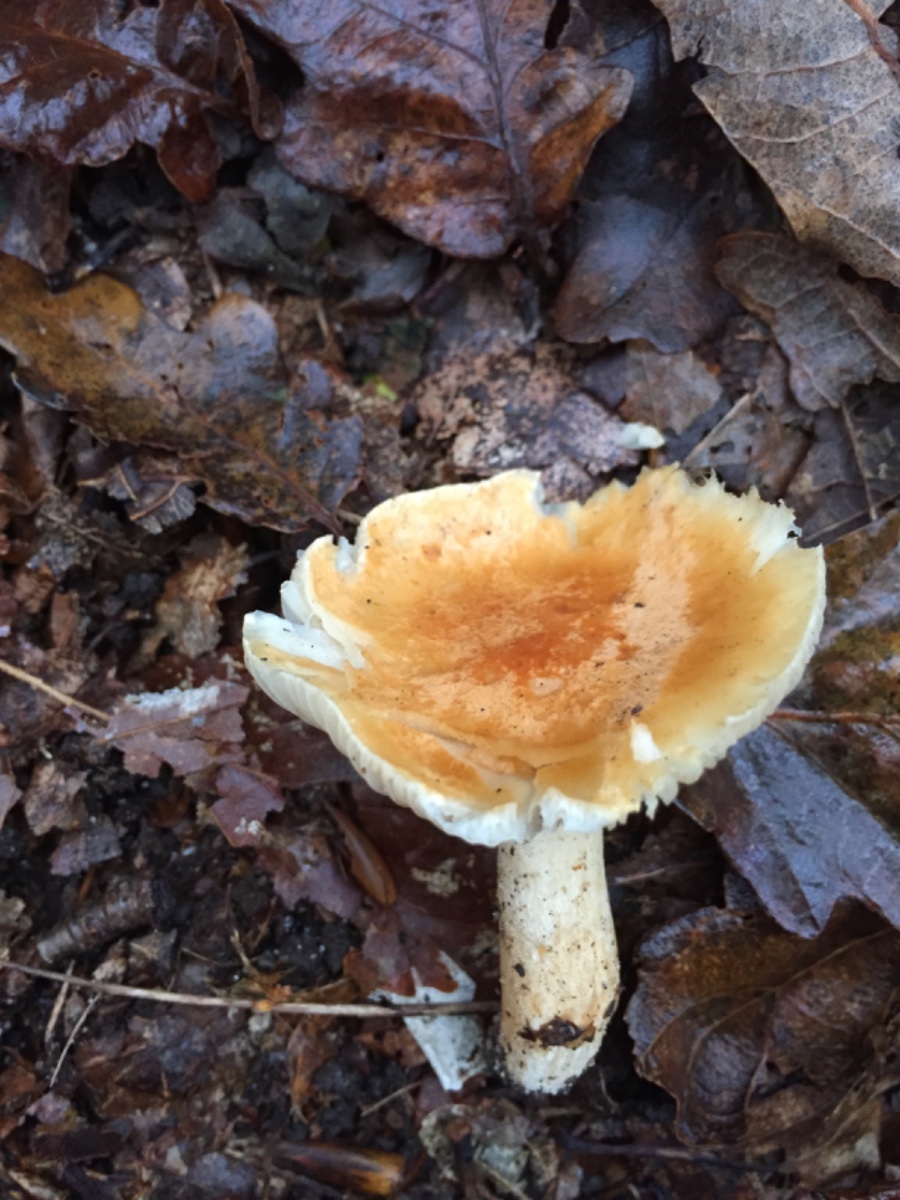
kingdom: Fungi
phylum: Basidiomycota
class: Agaricomycetes
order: Agaricales
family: Hygrophoraceae
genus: Hygrophorus
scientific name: Hygrophorus nemoreus
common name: lund-sneglehat
